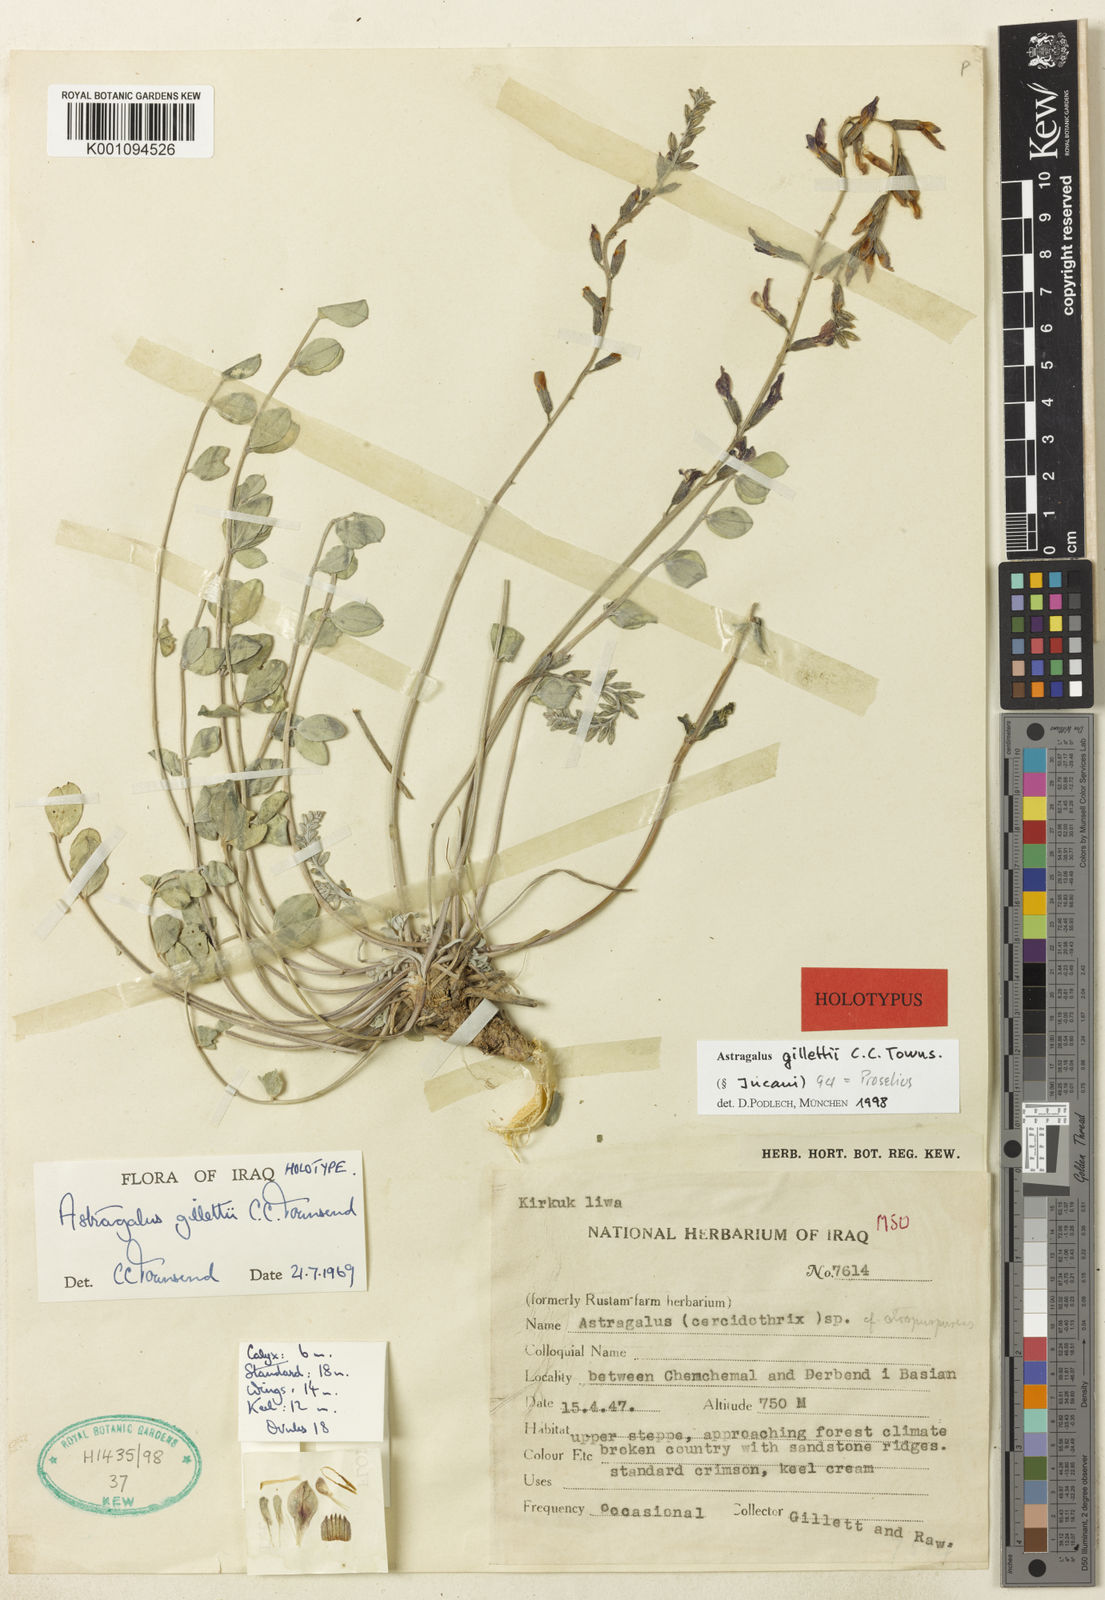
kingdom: Plantae
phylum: Tracheophyta
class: Magnoliopsida
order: Fabales
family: Fabaceae
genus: Astragalus
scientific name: Astragalus
